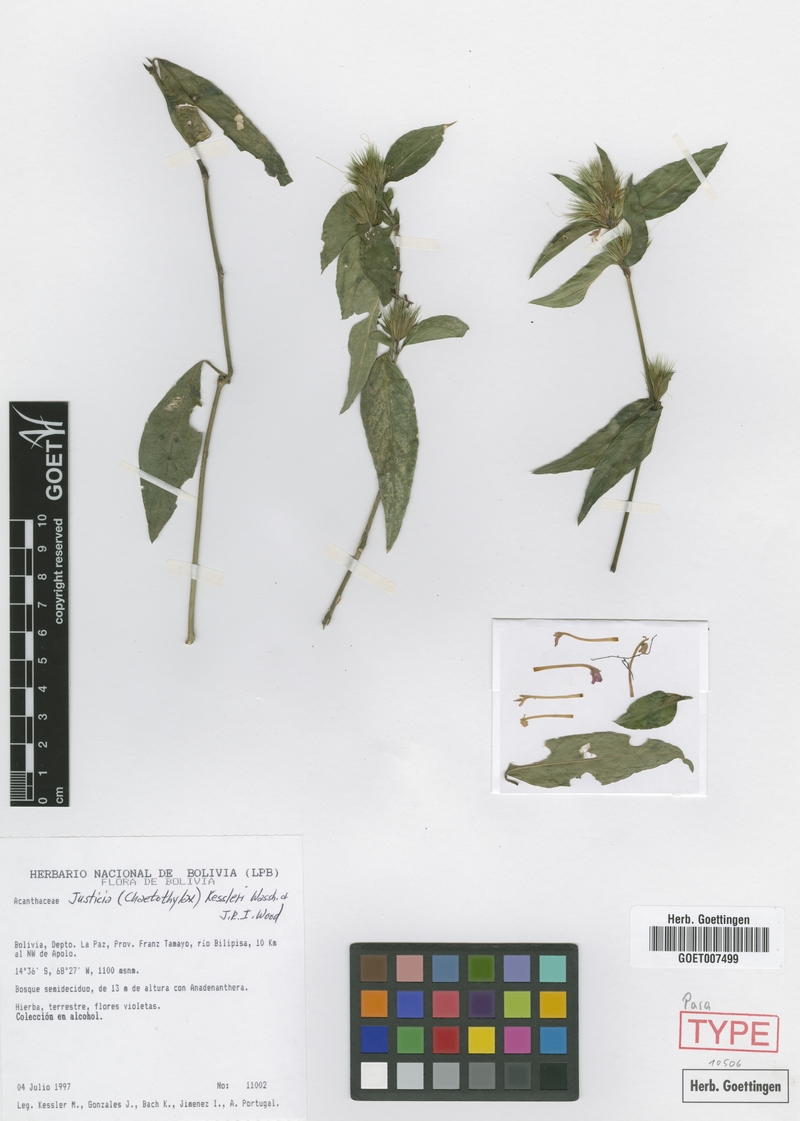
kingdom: Plantae
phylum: Tracheophyta
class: Magnoliopsida
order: Lamiales
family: Acanthaceae
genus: Justicia
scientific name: Justicia kessleri
